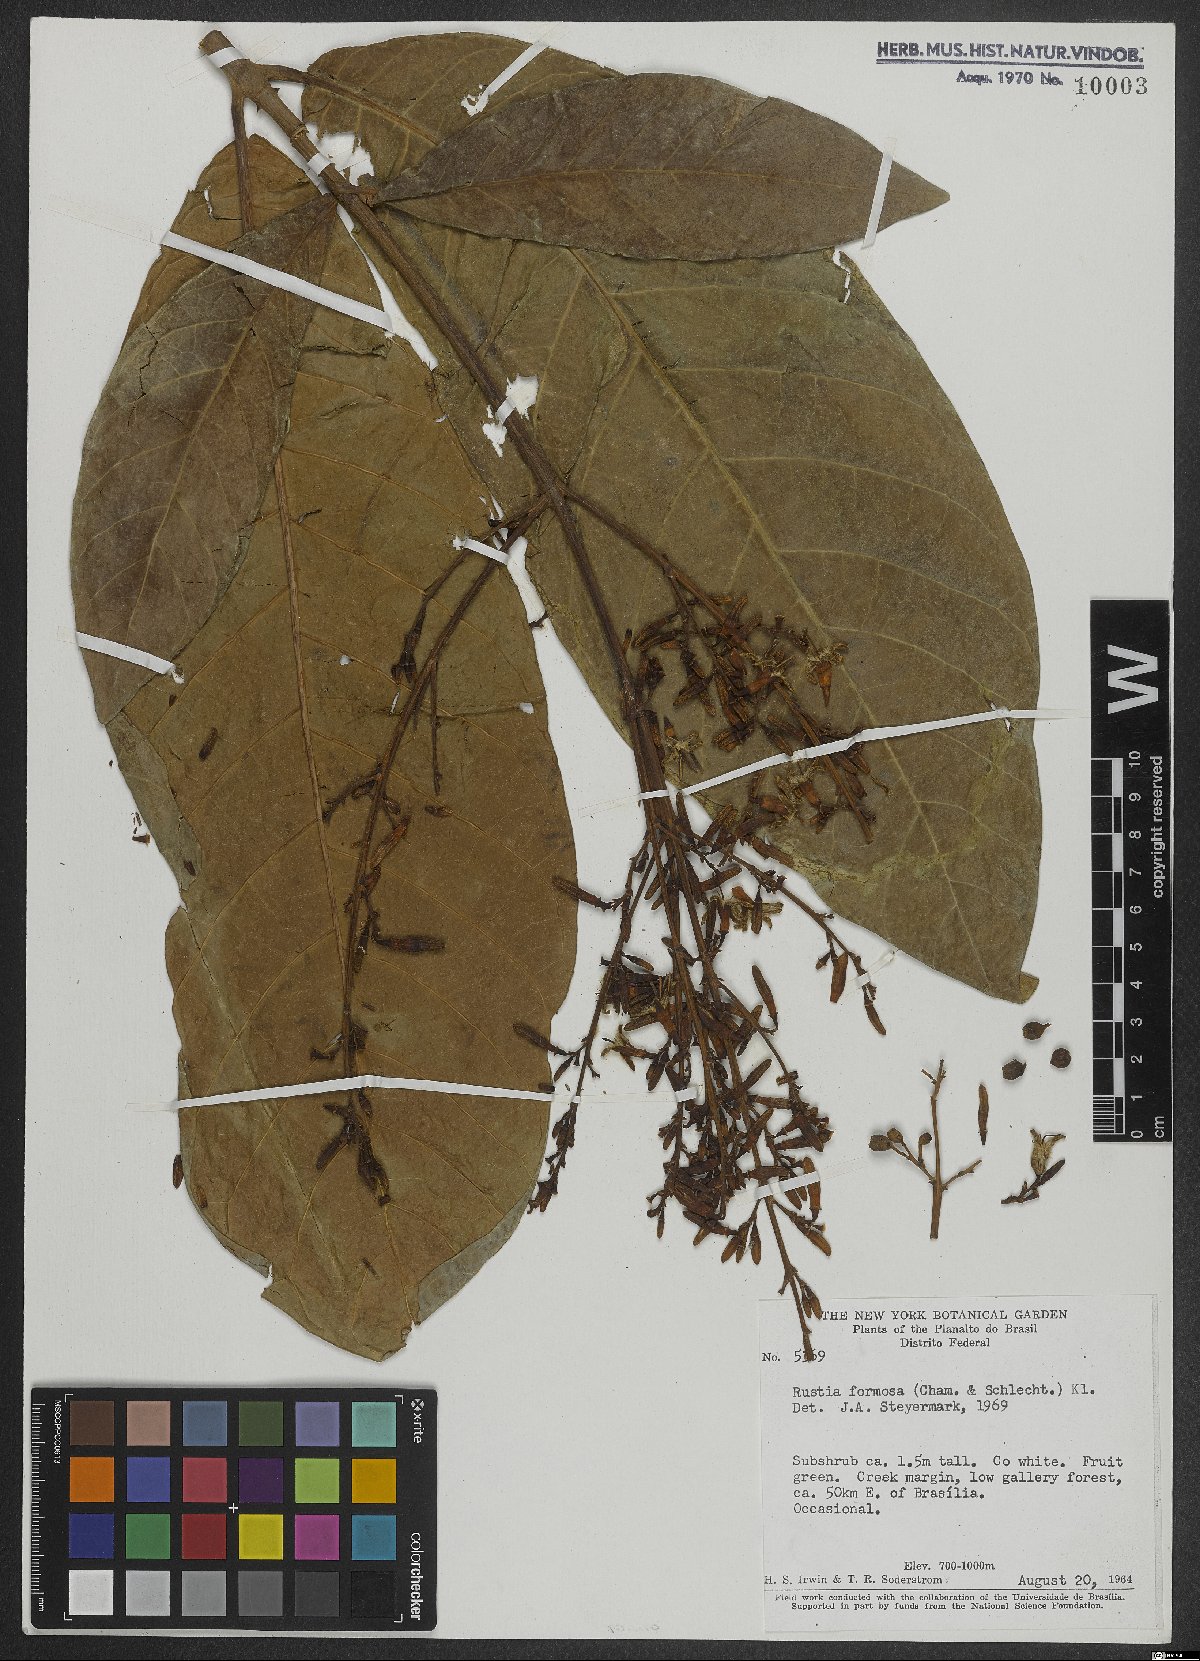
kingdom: Plantae
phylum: Tracheophyta
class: Magnoliopsida
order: Gentianales
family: Rubiaceae
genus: Rustia
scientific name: Rustia formosa
